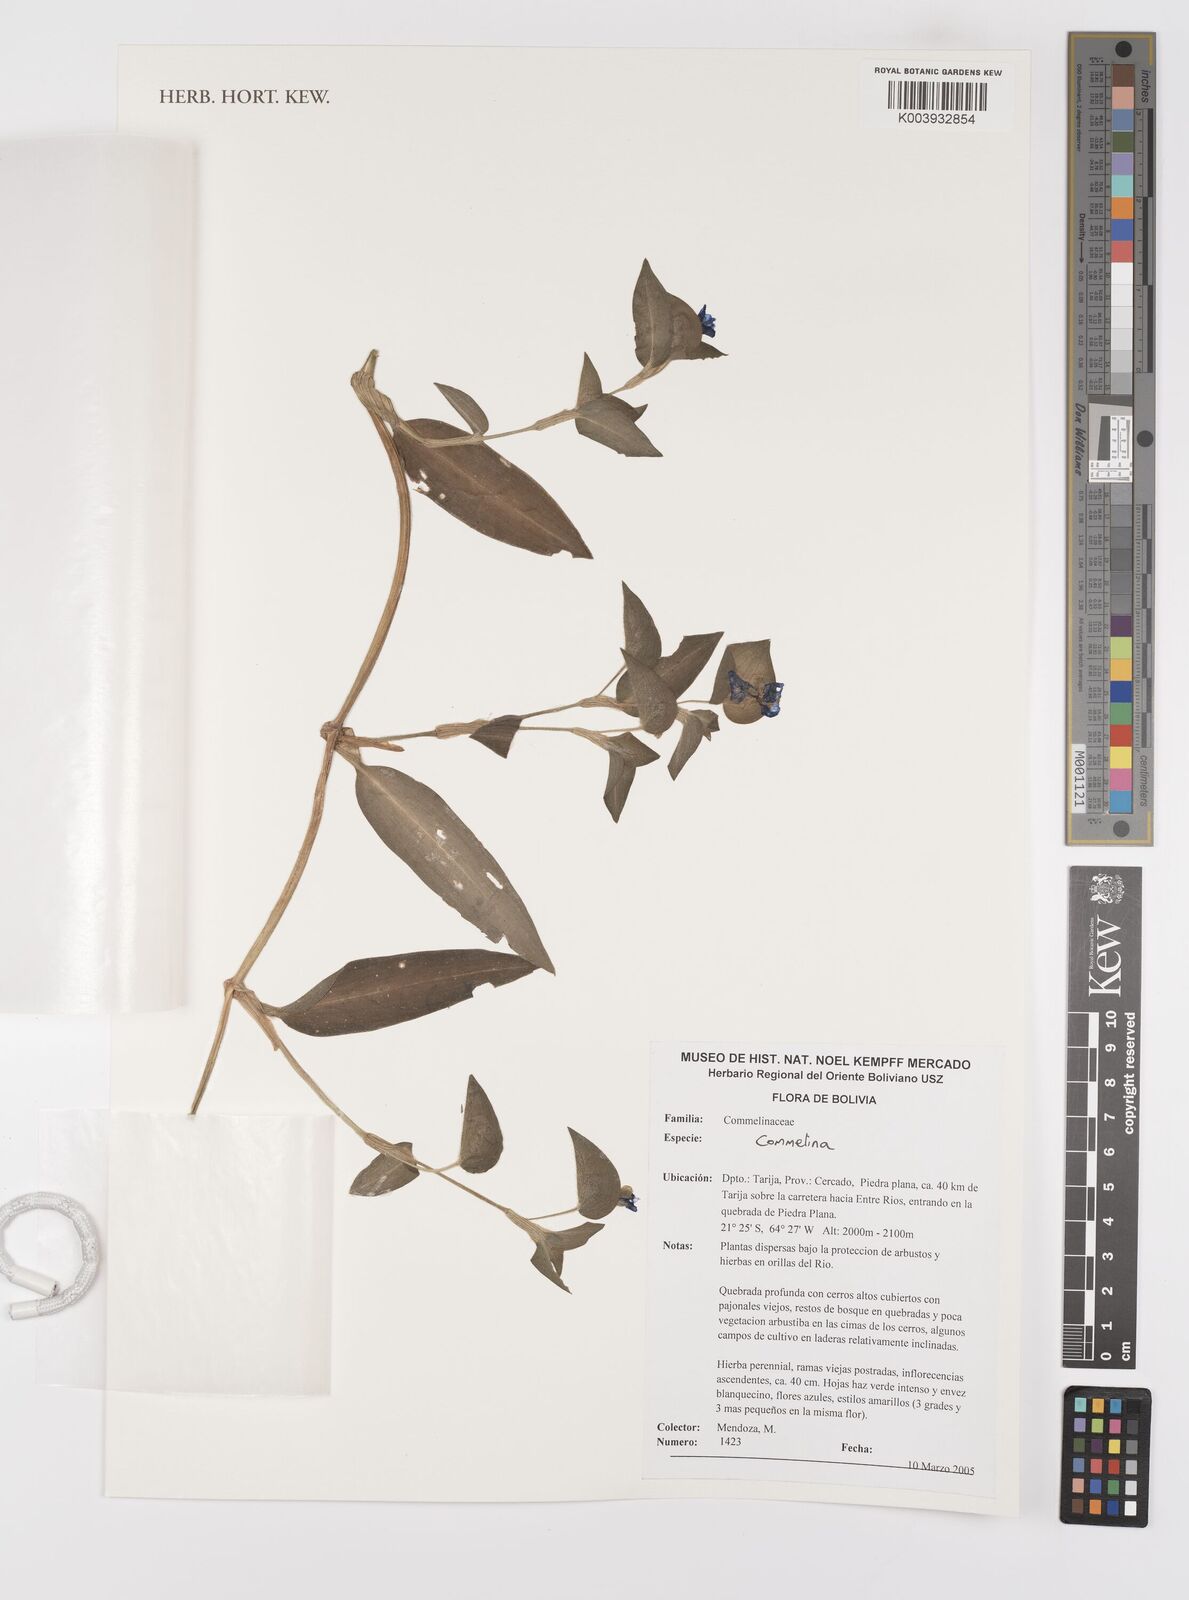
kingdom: Plantae
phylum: Tracheophyta
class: Liliopsida
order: Commelinales
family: Commelinaceae
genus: Commelina
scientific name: Commelina
